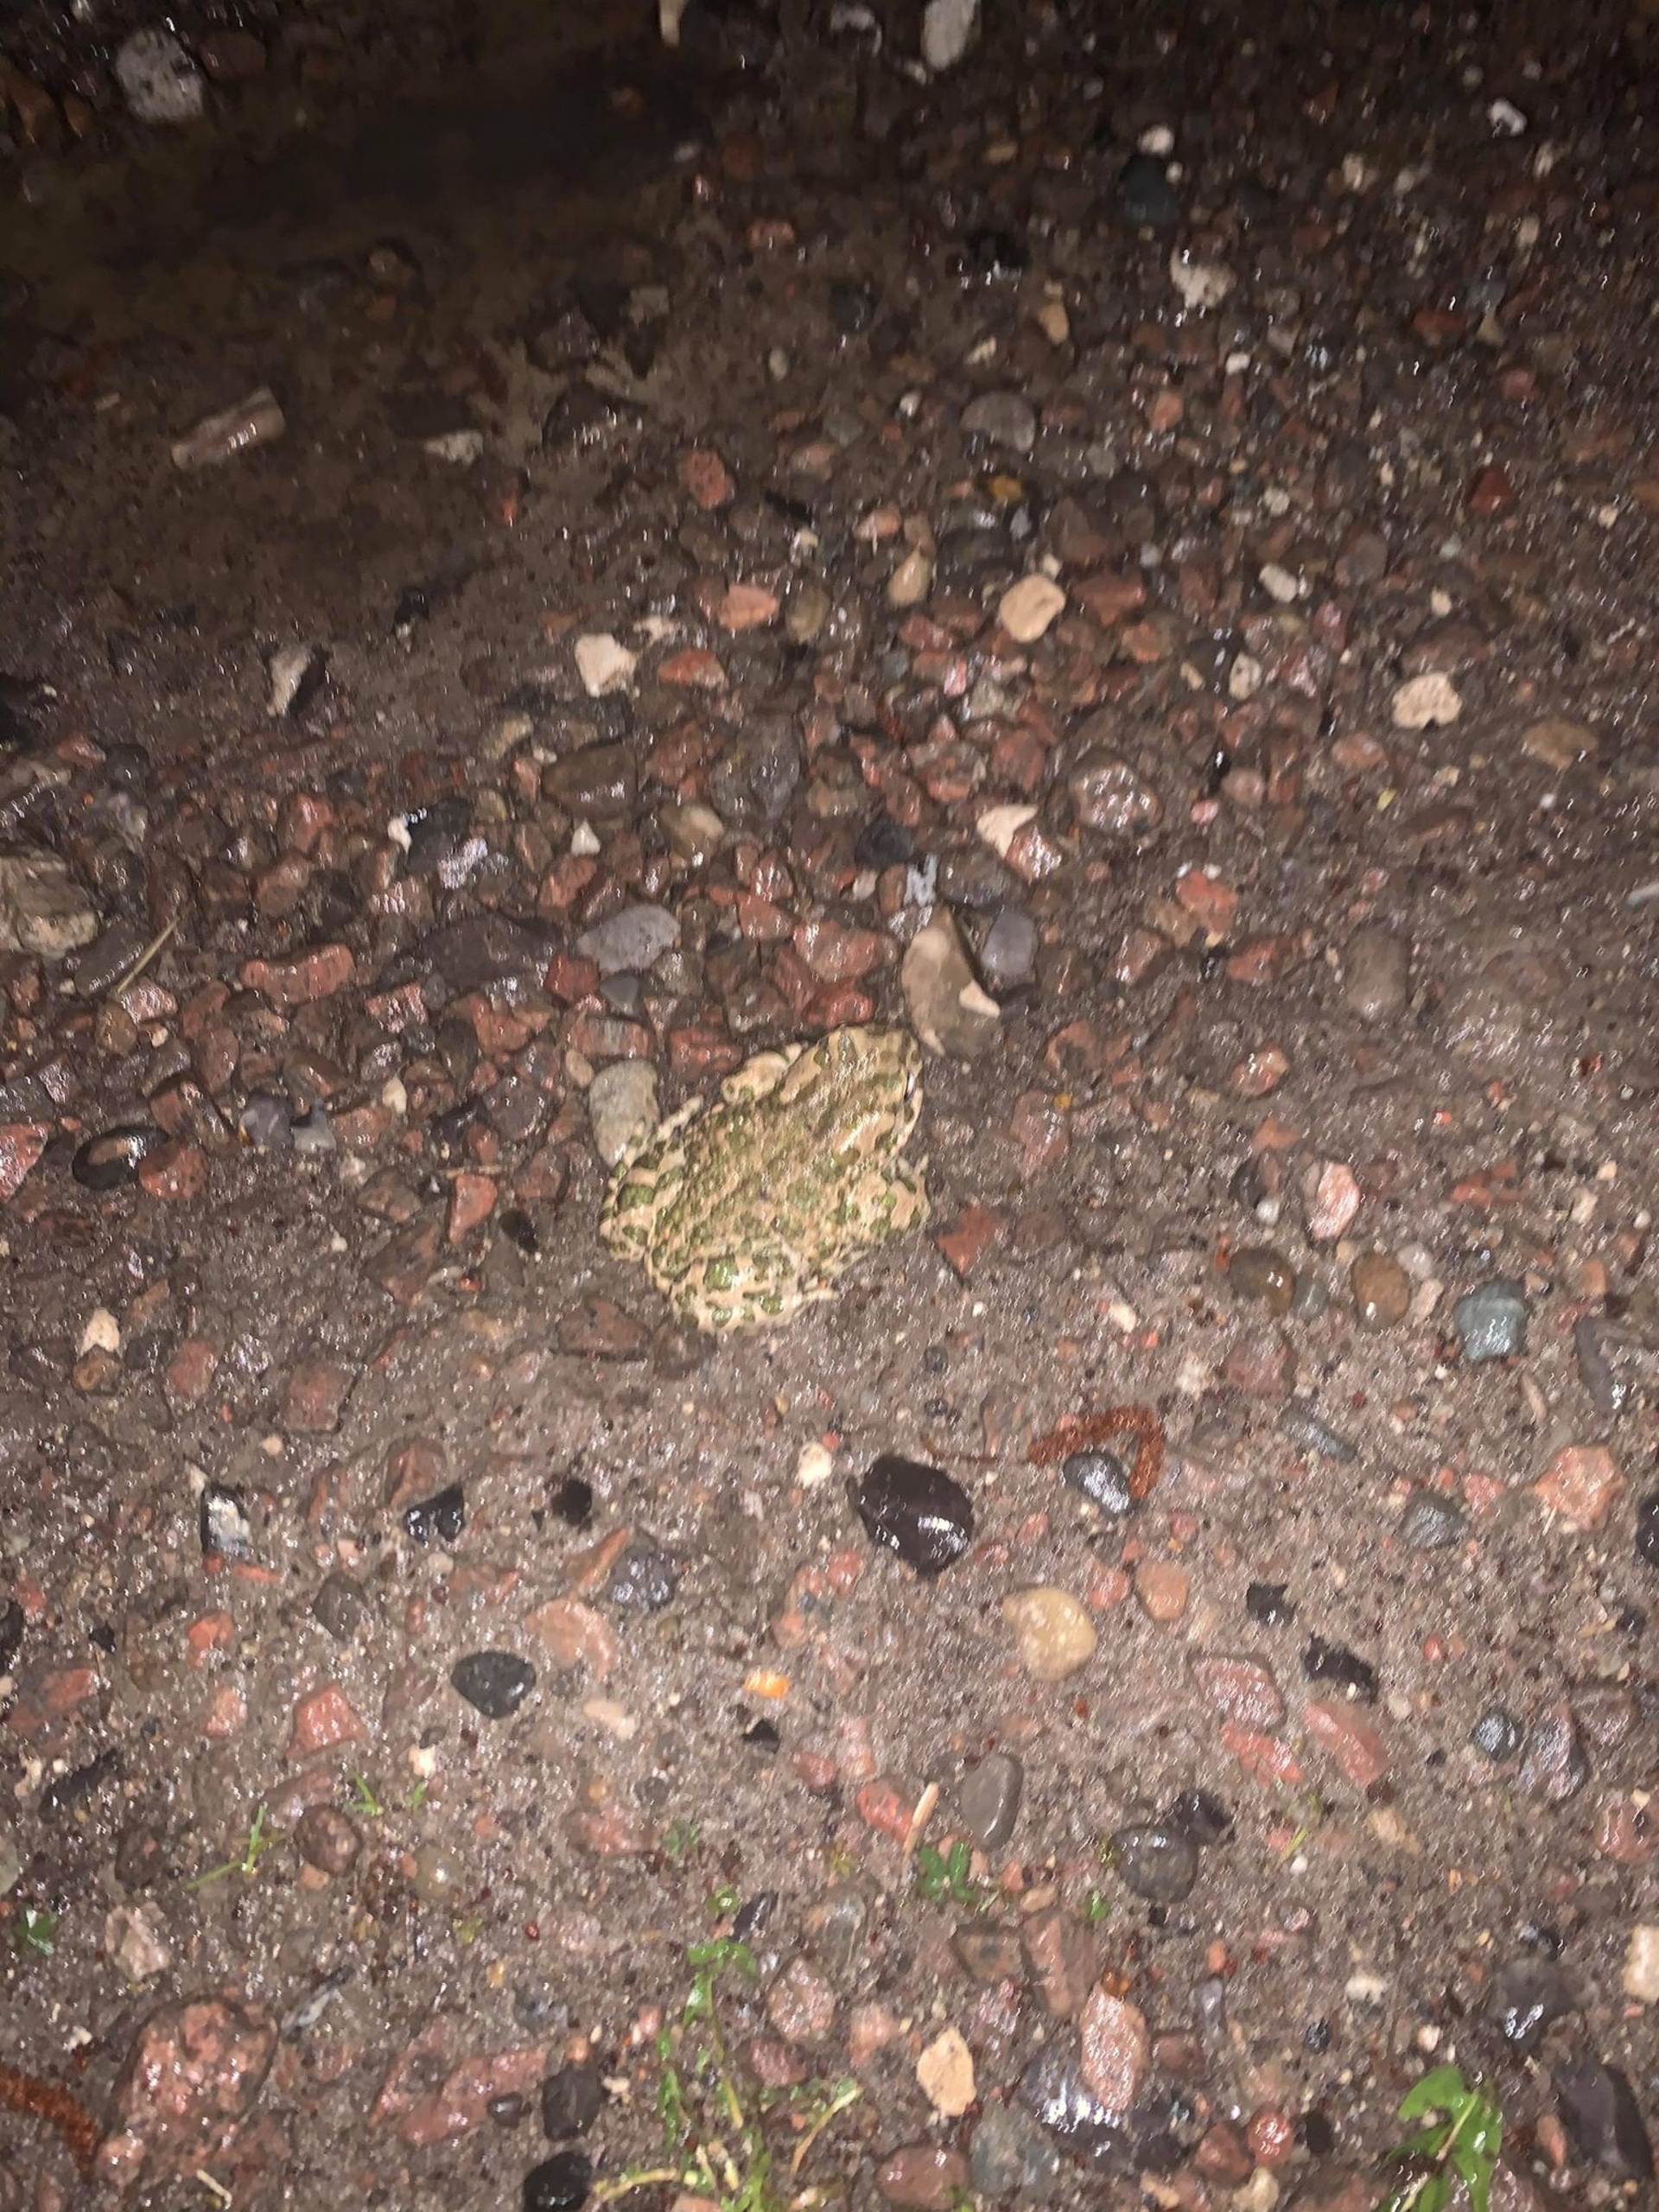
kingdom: Animalia
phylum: Chordata
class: Amphibia
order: Anura
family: Bufonidae
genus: Bufotes
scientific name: Bufotes viridis
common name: Grønbroget tudse
